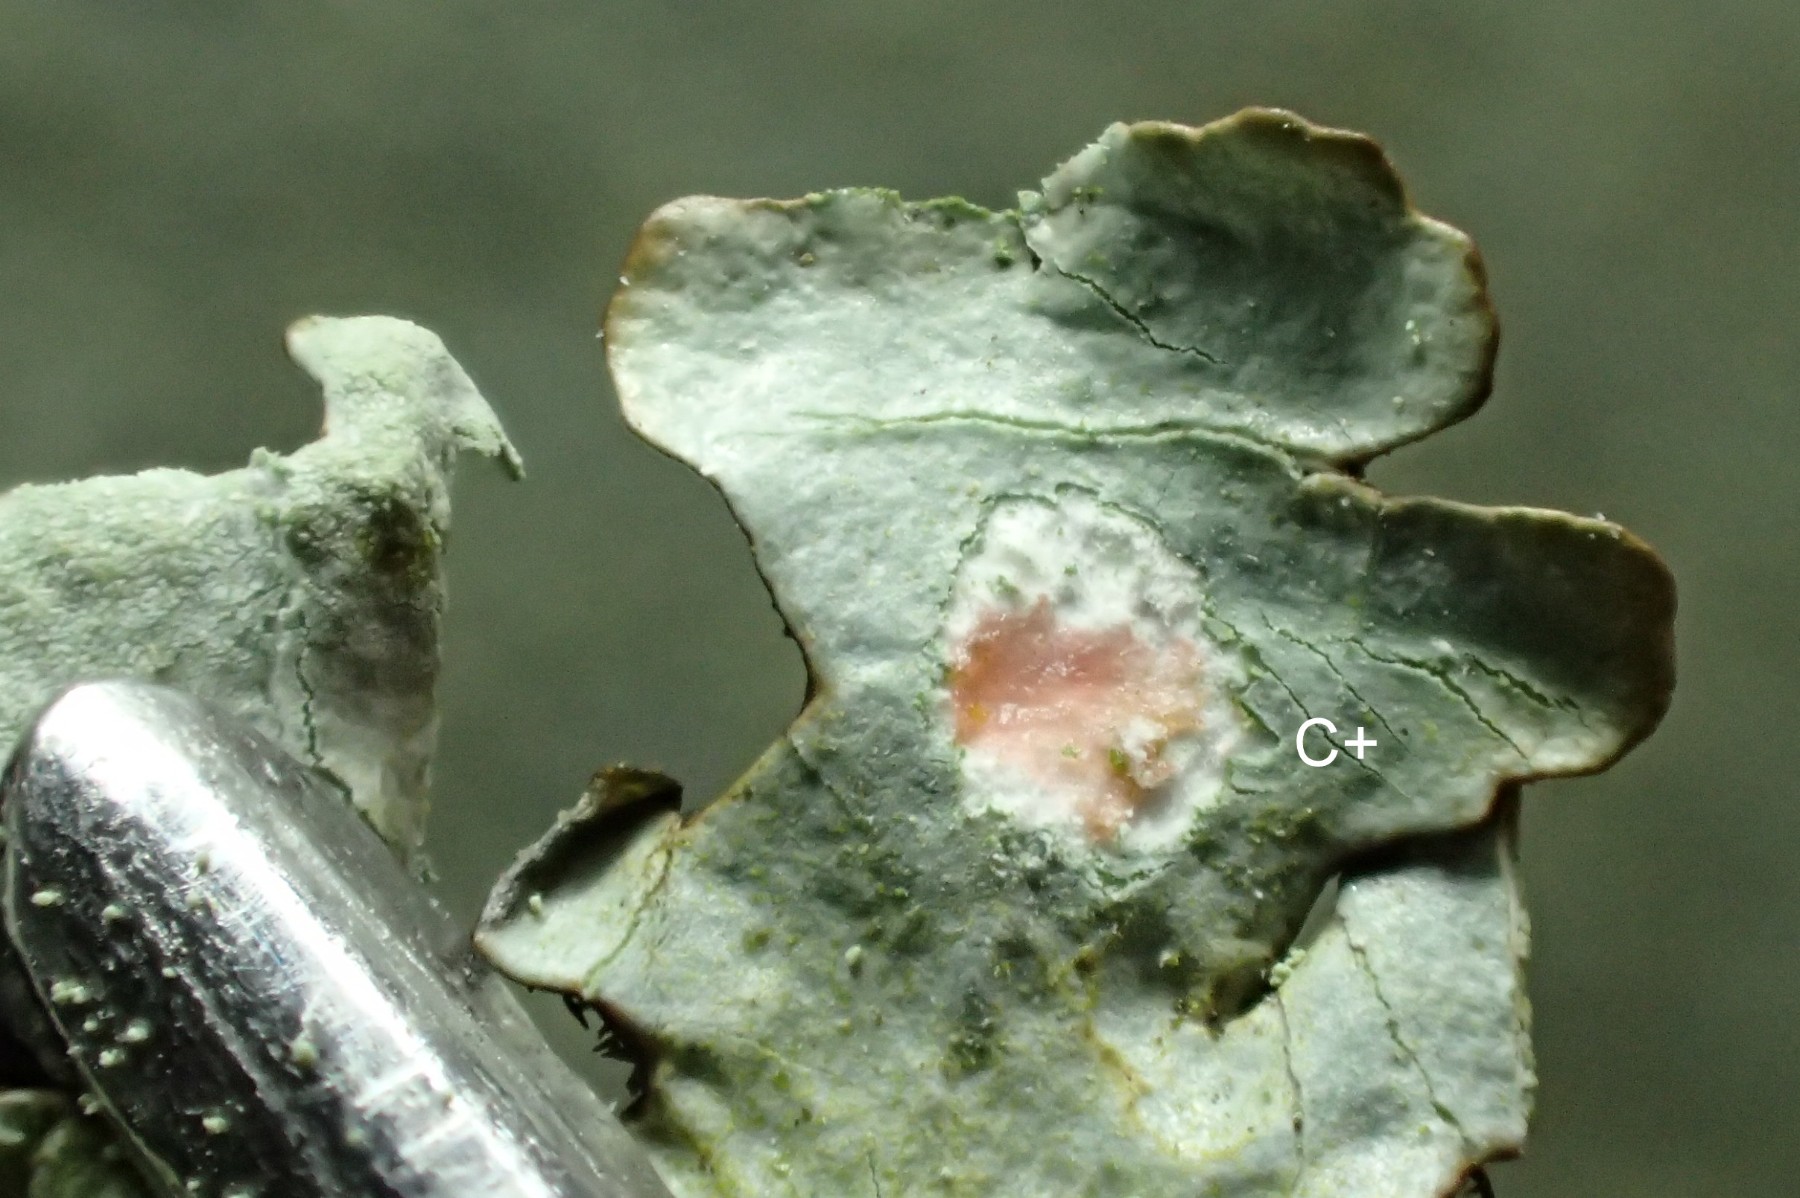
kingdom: Fungi
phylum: Ascomycota
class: Lecanoromycetes
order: Lecanorales
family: Parmeliaceae
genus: Hypotrachyna
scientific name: Hypotrachyna revoluta
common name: bleggrå skållav
